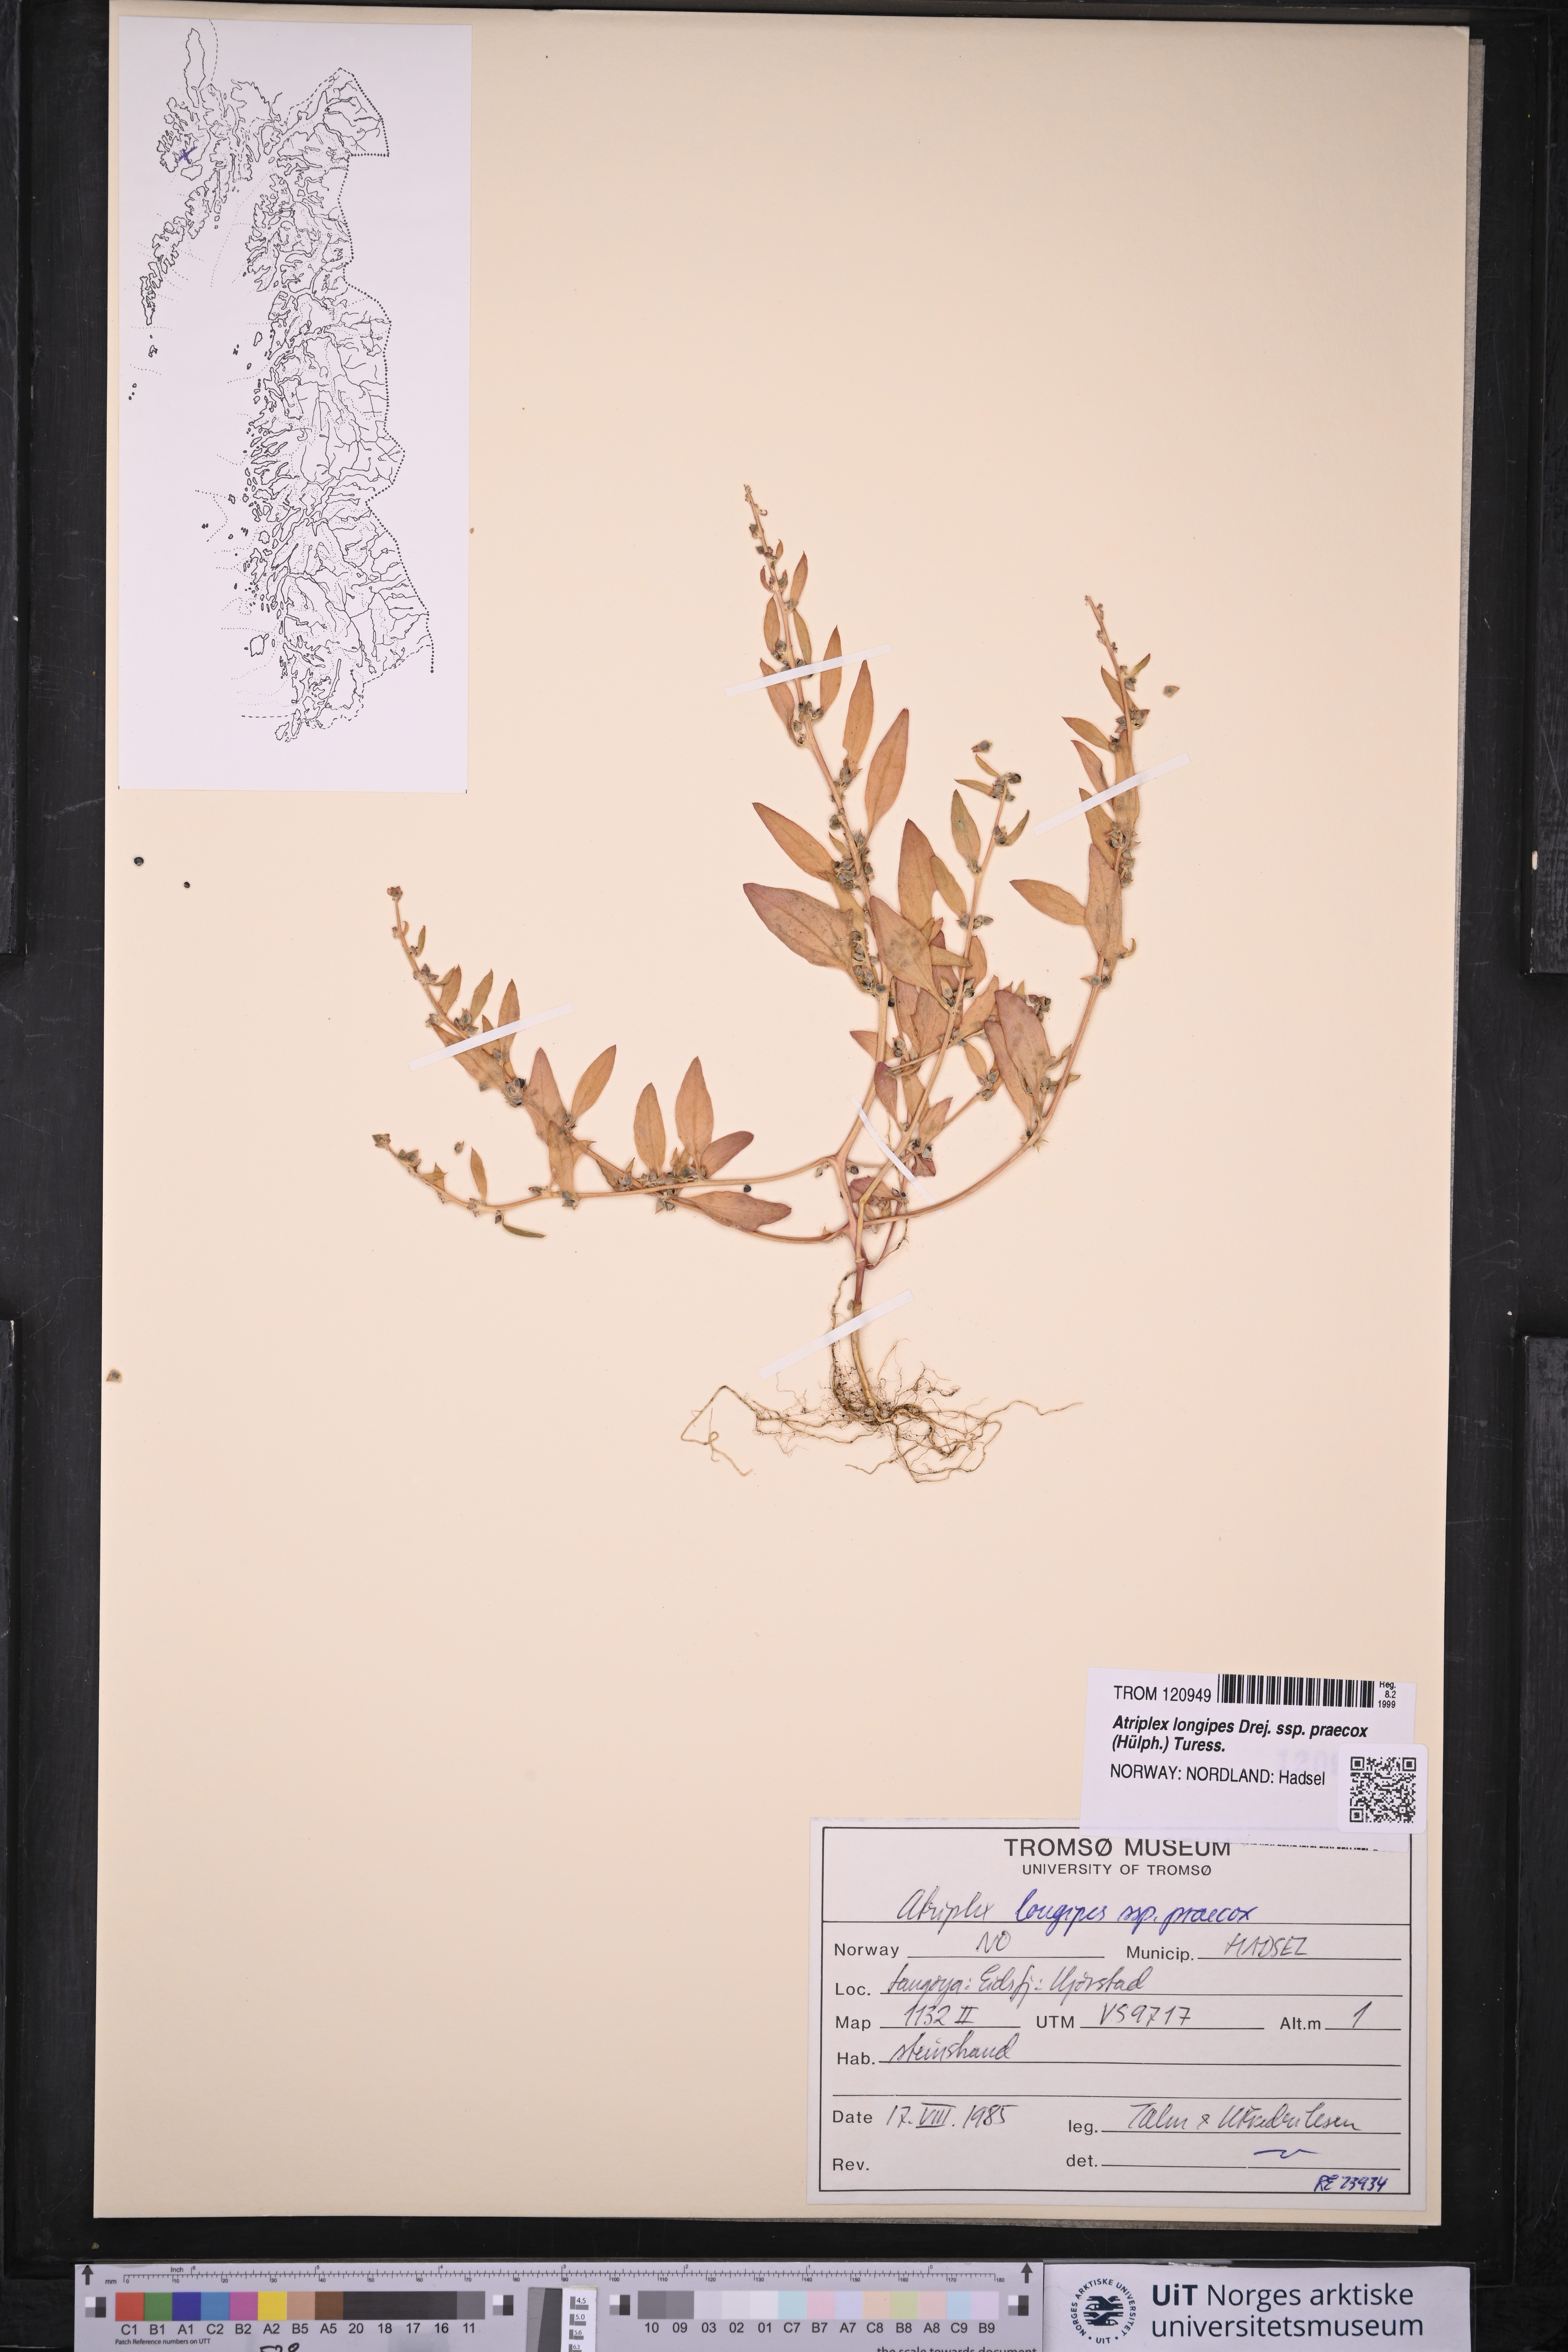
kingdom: Plantae
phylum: Tracheophyta
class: Magnoliopsida
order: Caryophyllales
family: Amaranthaceae
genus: Atriplex
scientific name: Atriplex praecox
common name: Early orache
